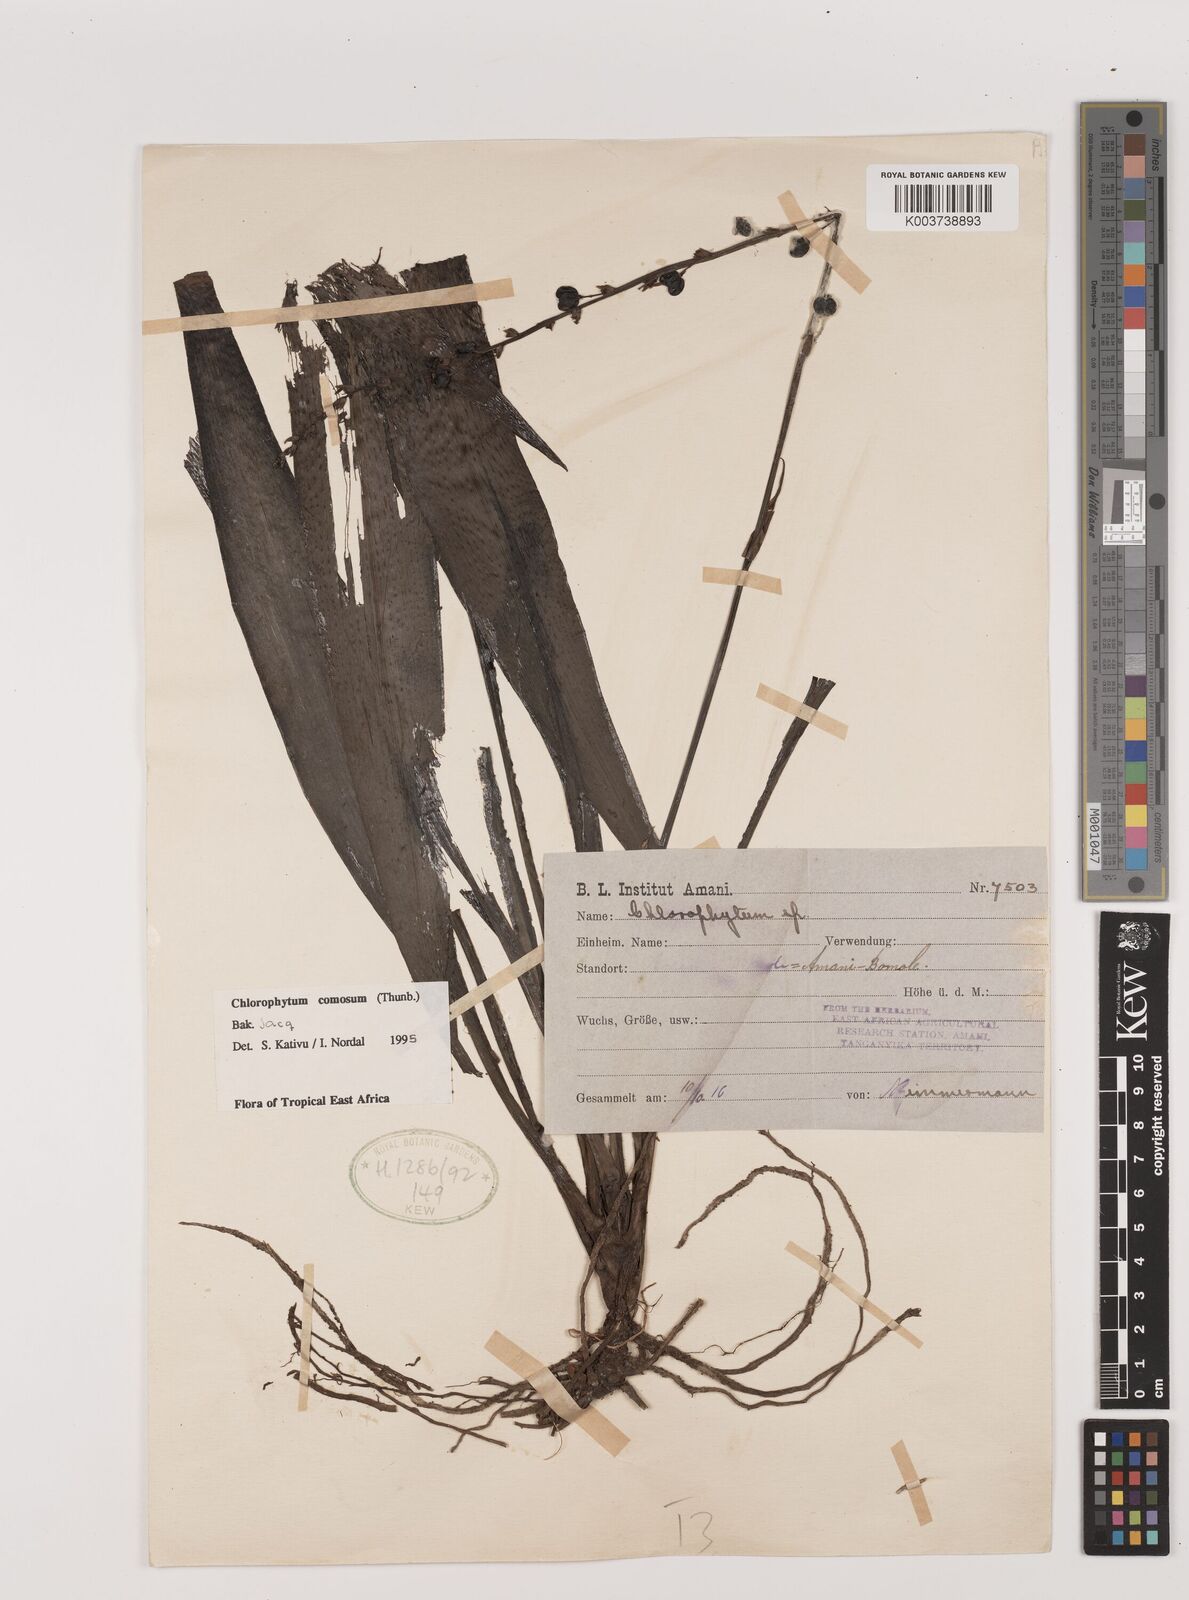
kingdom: Plantae
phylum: Tracheophyta
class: Liliopsida
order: Asparagales
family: Asparagaceae
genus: Chlorophytum
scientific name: Chlorophytum comosum
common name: Spider plant
